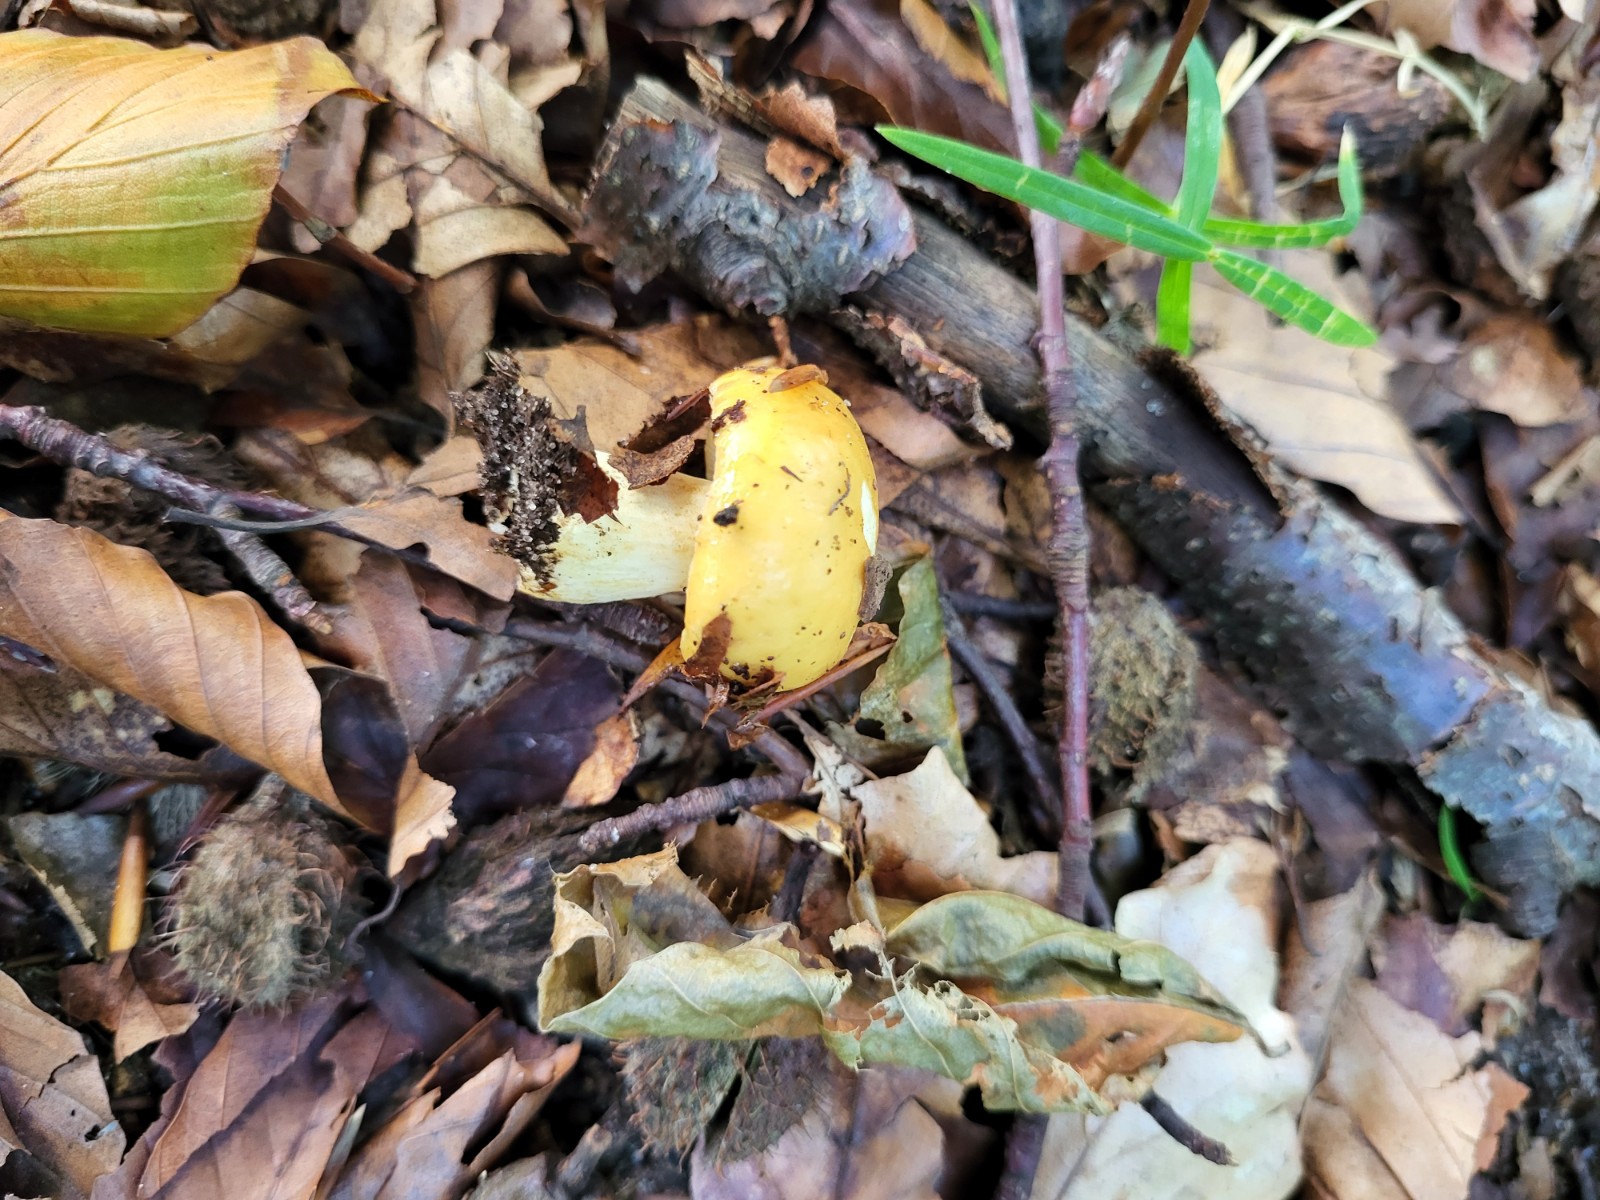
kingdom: Fungi
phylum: Basidiomycota
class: Agaricomycetes
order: Russulales
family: Russulaceae
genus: Russula
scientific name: Russula ochroleuca
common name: okkergul skørhat
